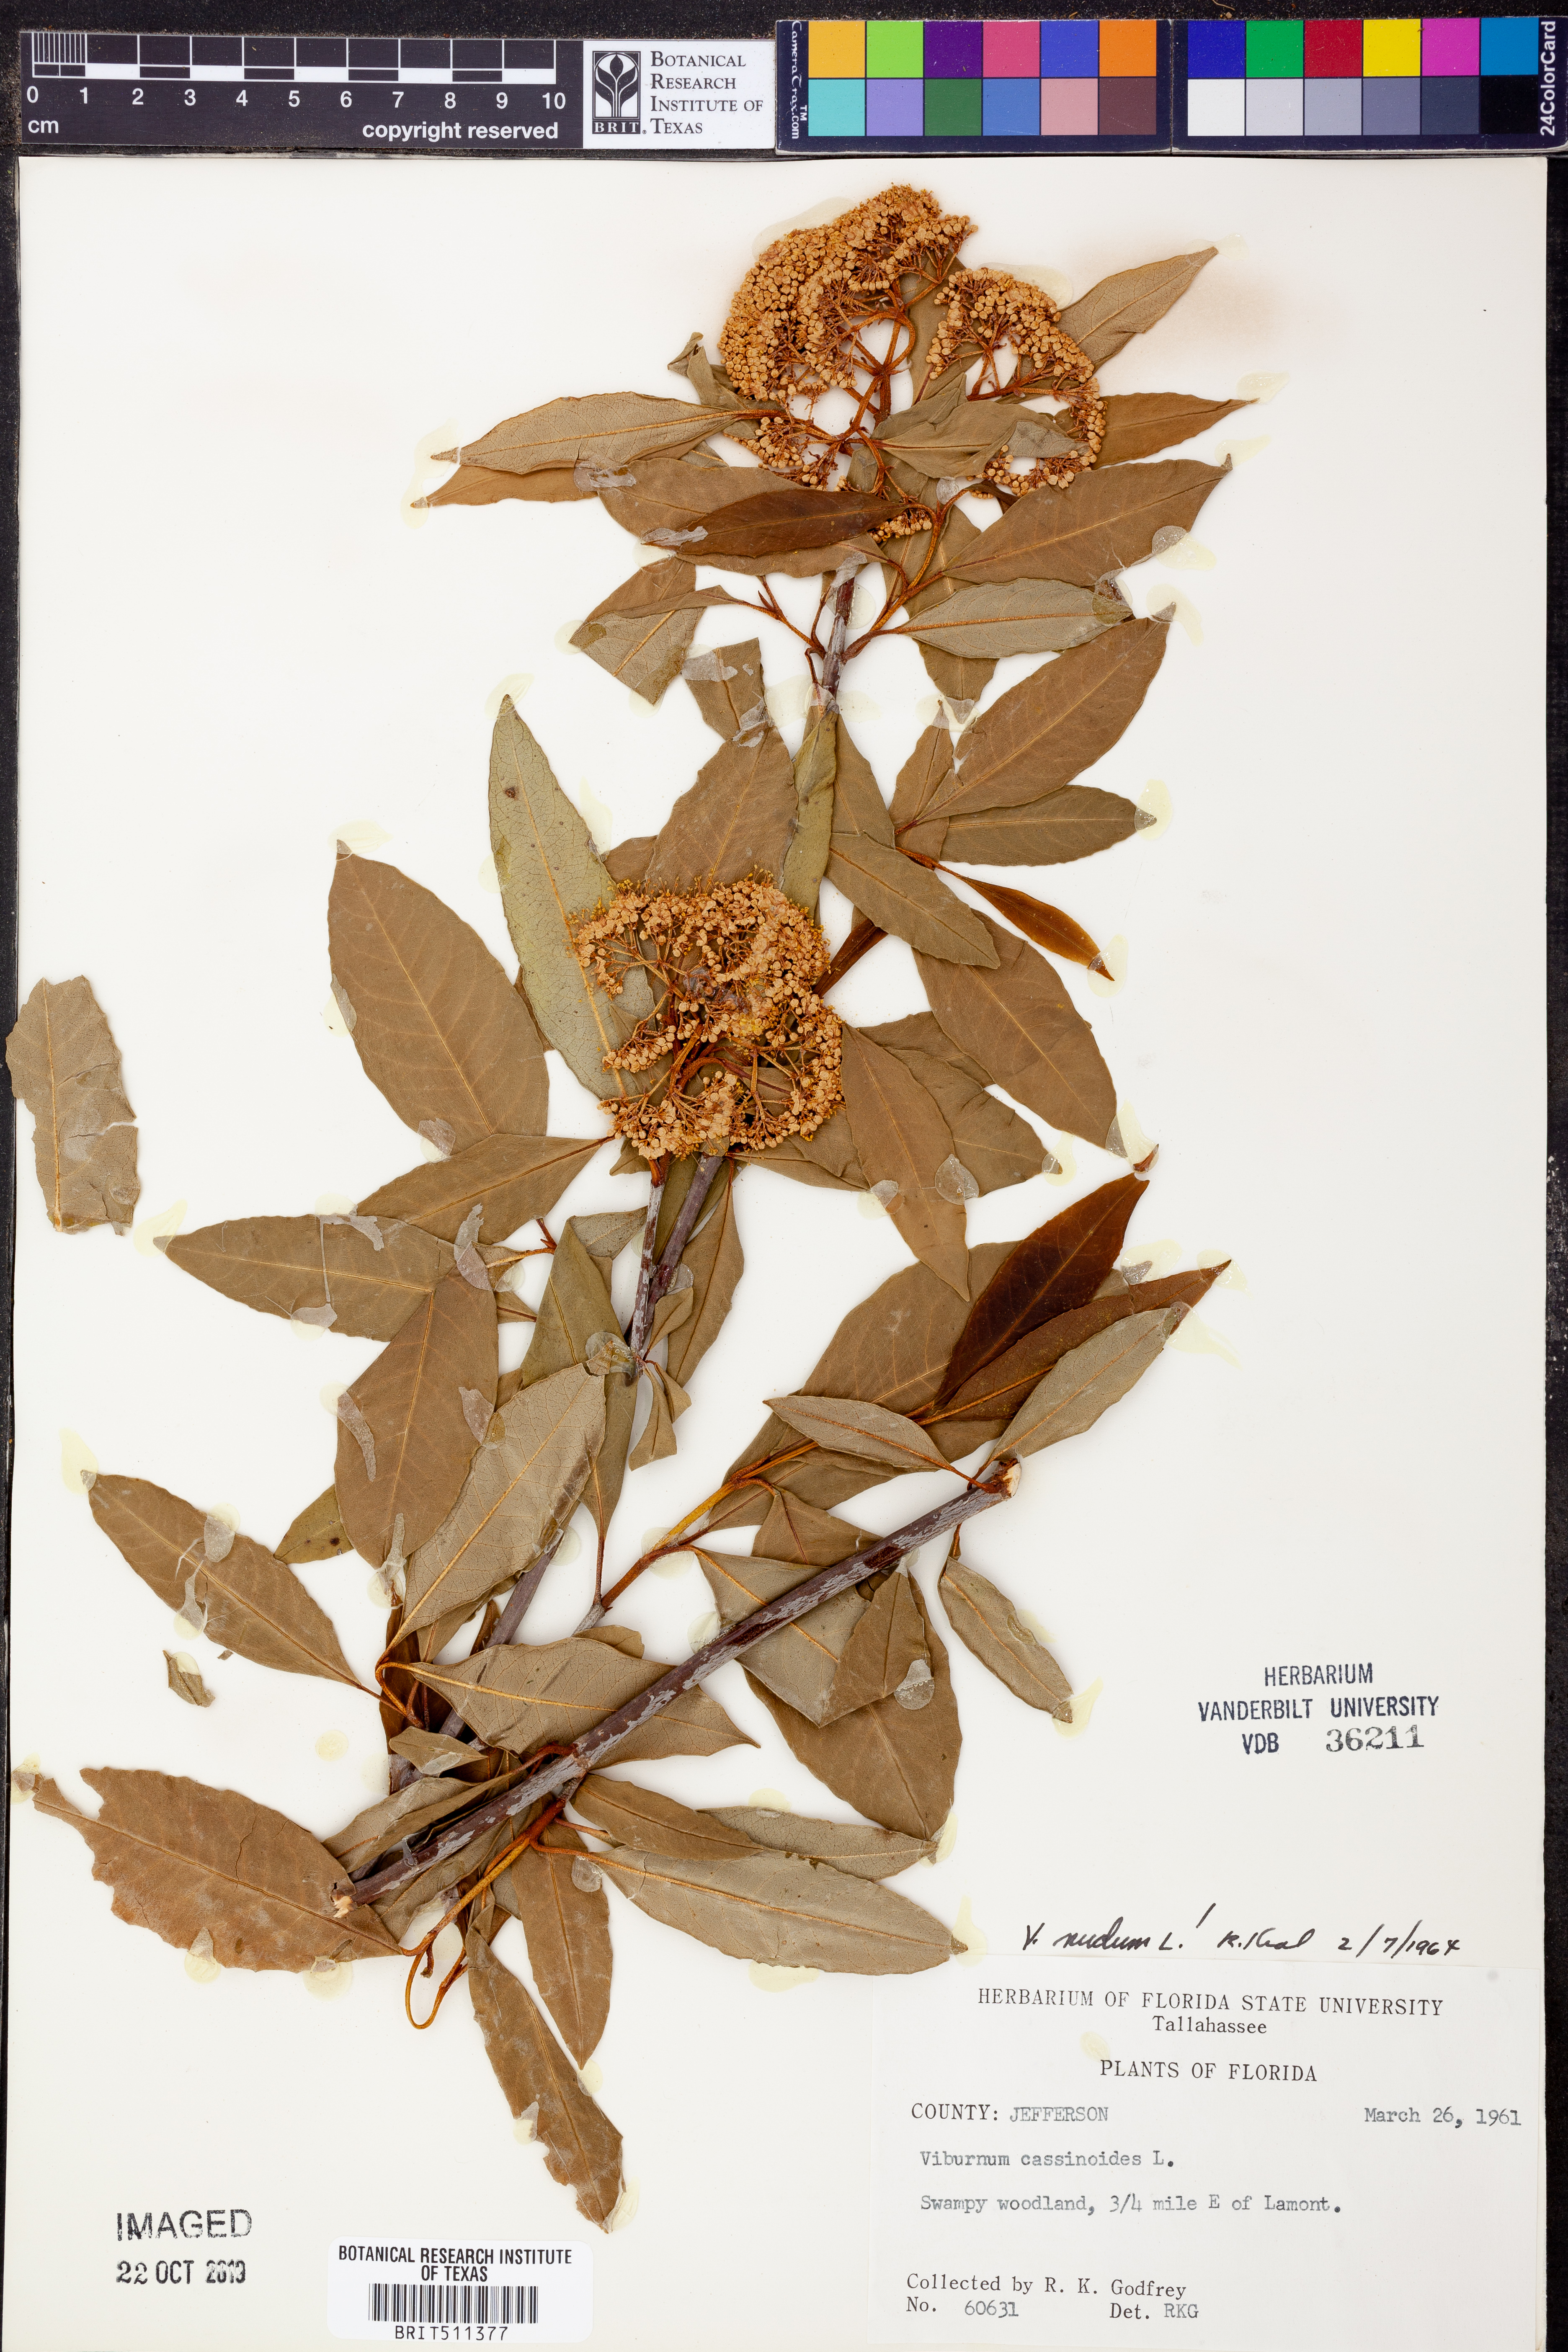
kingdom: Plantae
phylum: Tracheophyta
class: Magnoliopsida
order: Dipsacales
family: Viburnaceae
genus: Viburnum
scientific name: Viburnum nudum
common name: Possum haw
